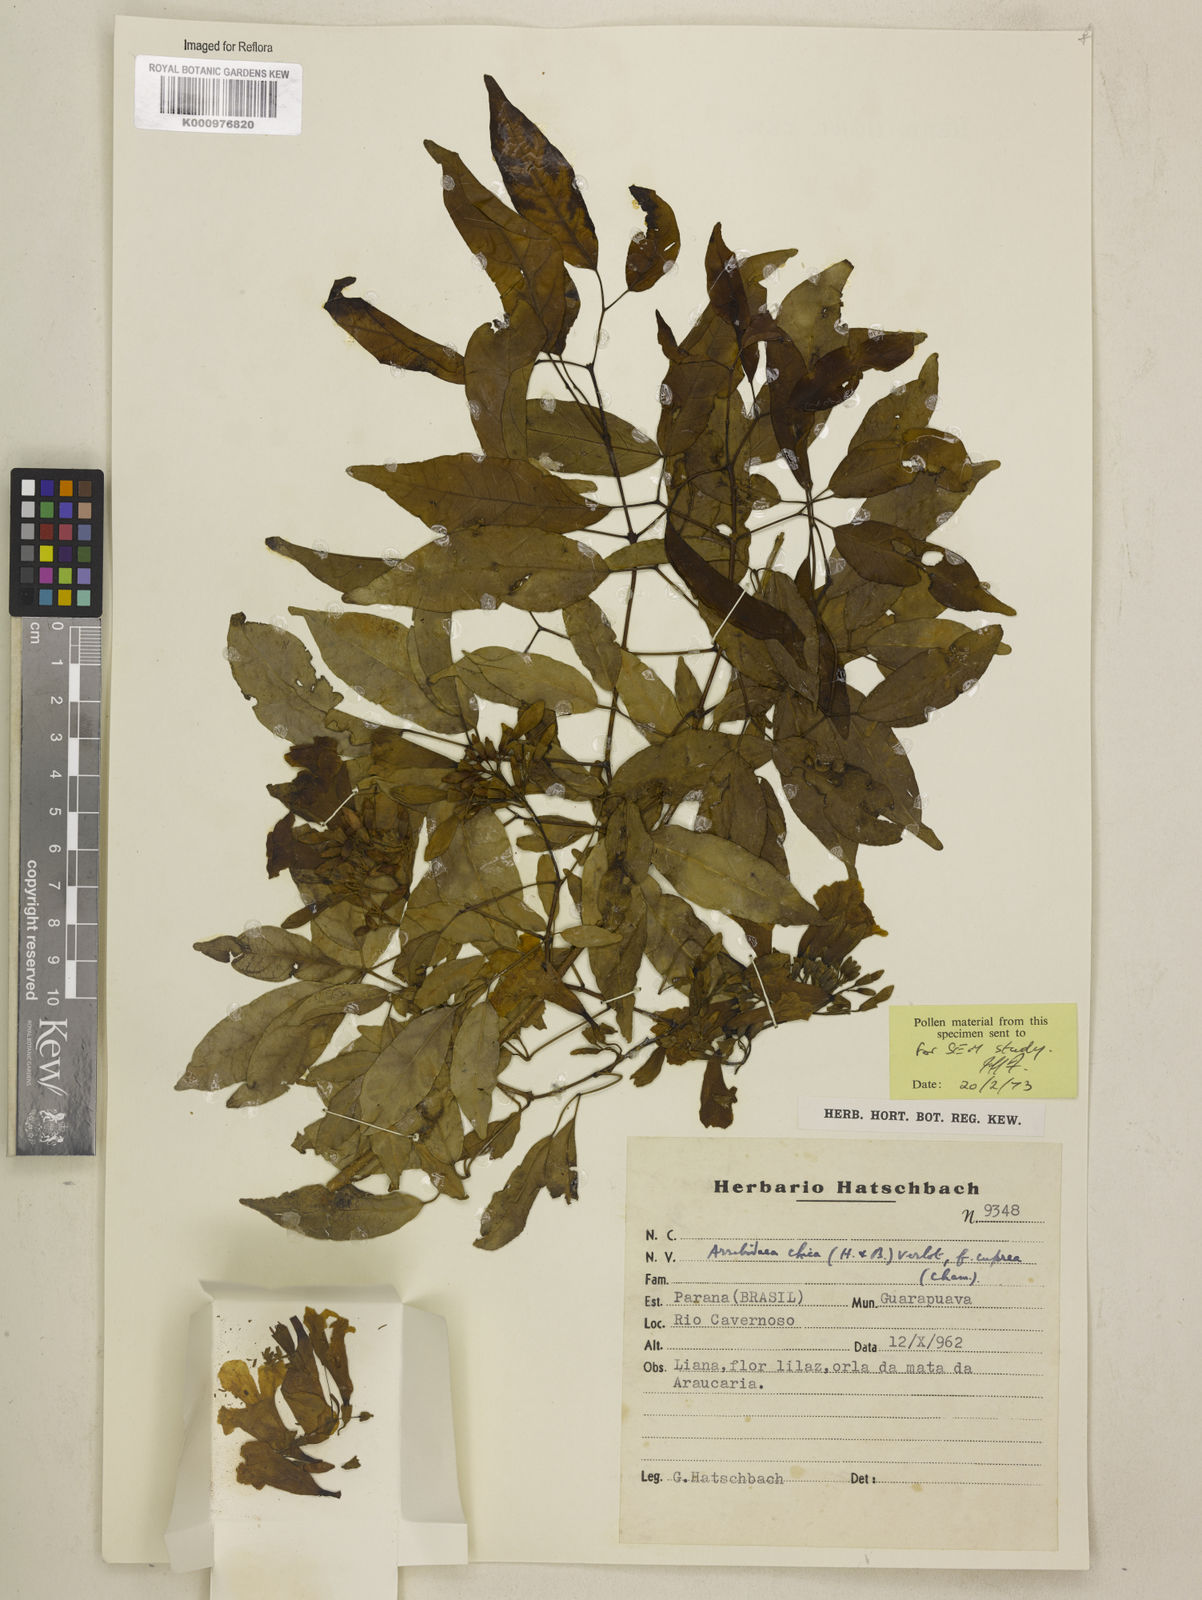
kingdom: Plantae
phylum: Tracheophyta
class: Magnoliopsida
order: Lamiales
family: Bignoniaceae
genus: Fridericia
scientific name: Fridericia chica
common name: Cricketvine
